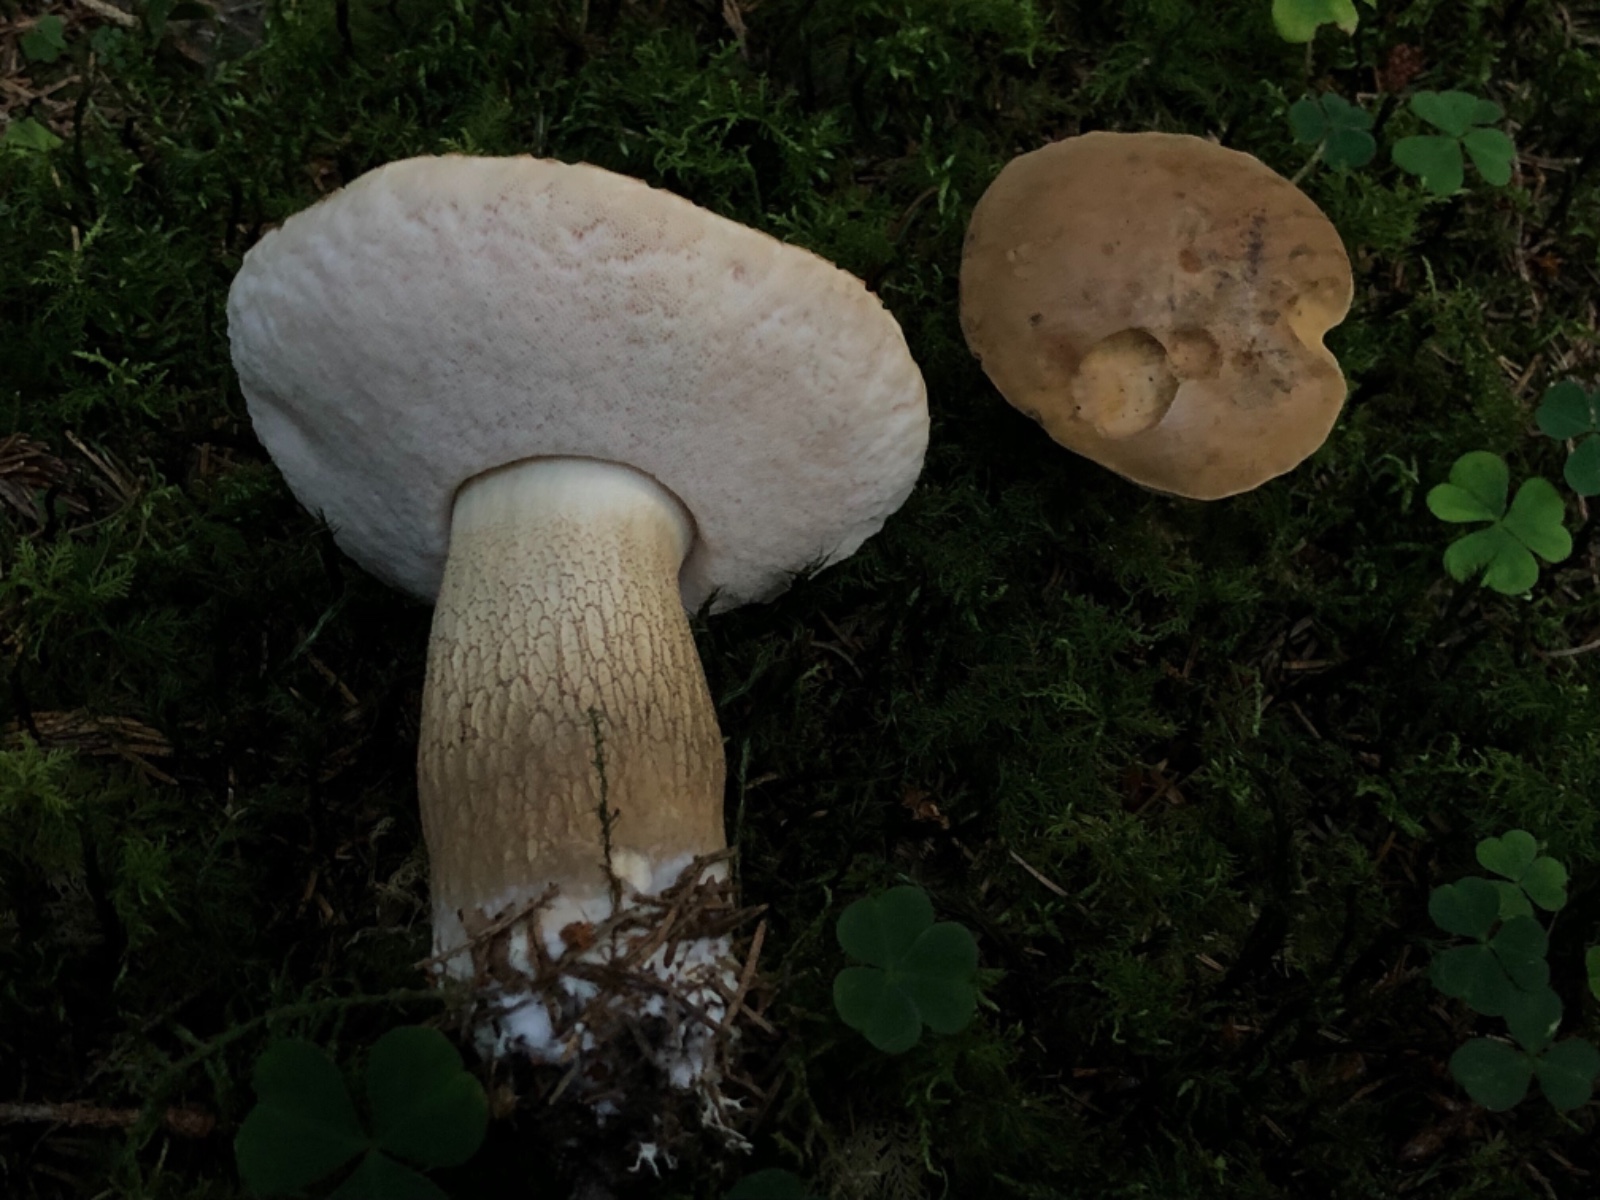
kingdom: Fungi
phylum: Basidiomycota
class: Agaricomycetes
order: Boletales
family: Boletaceae
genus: Tylopilus
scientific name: Tylopilus felleus
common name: galderørhat
